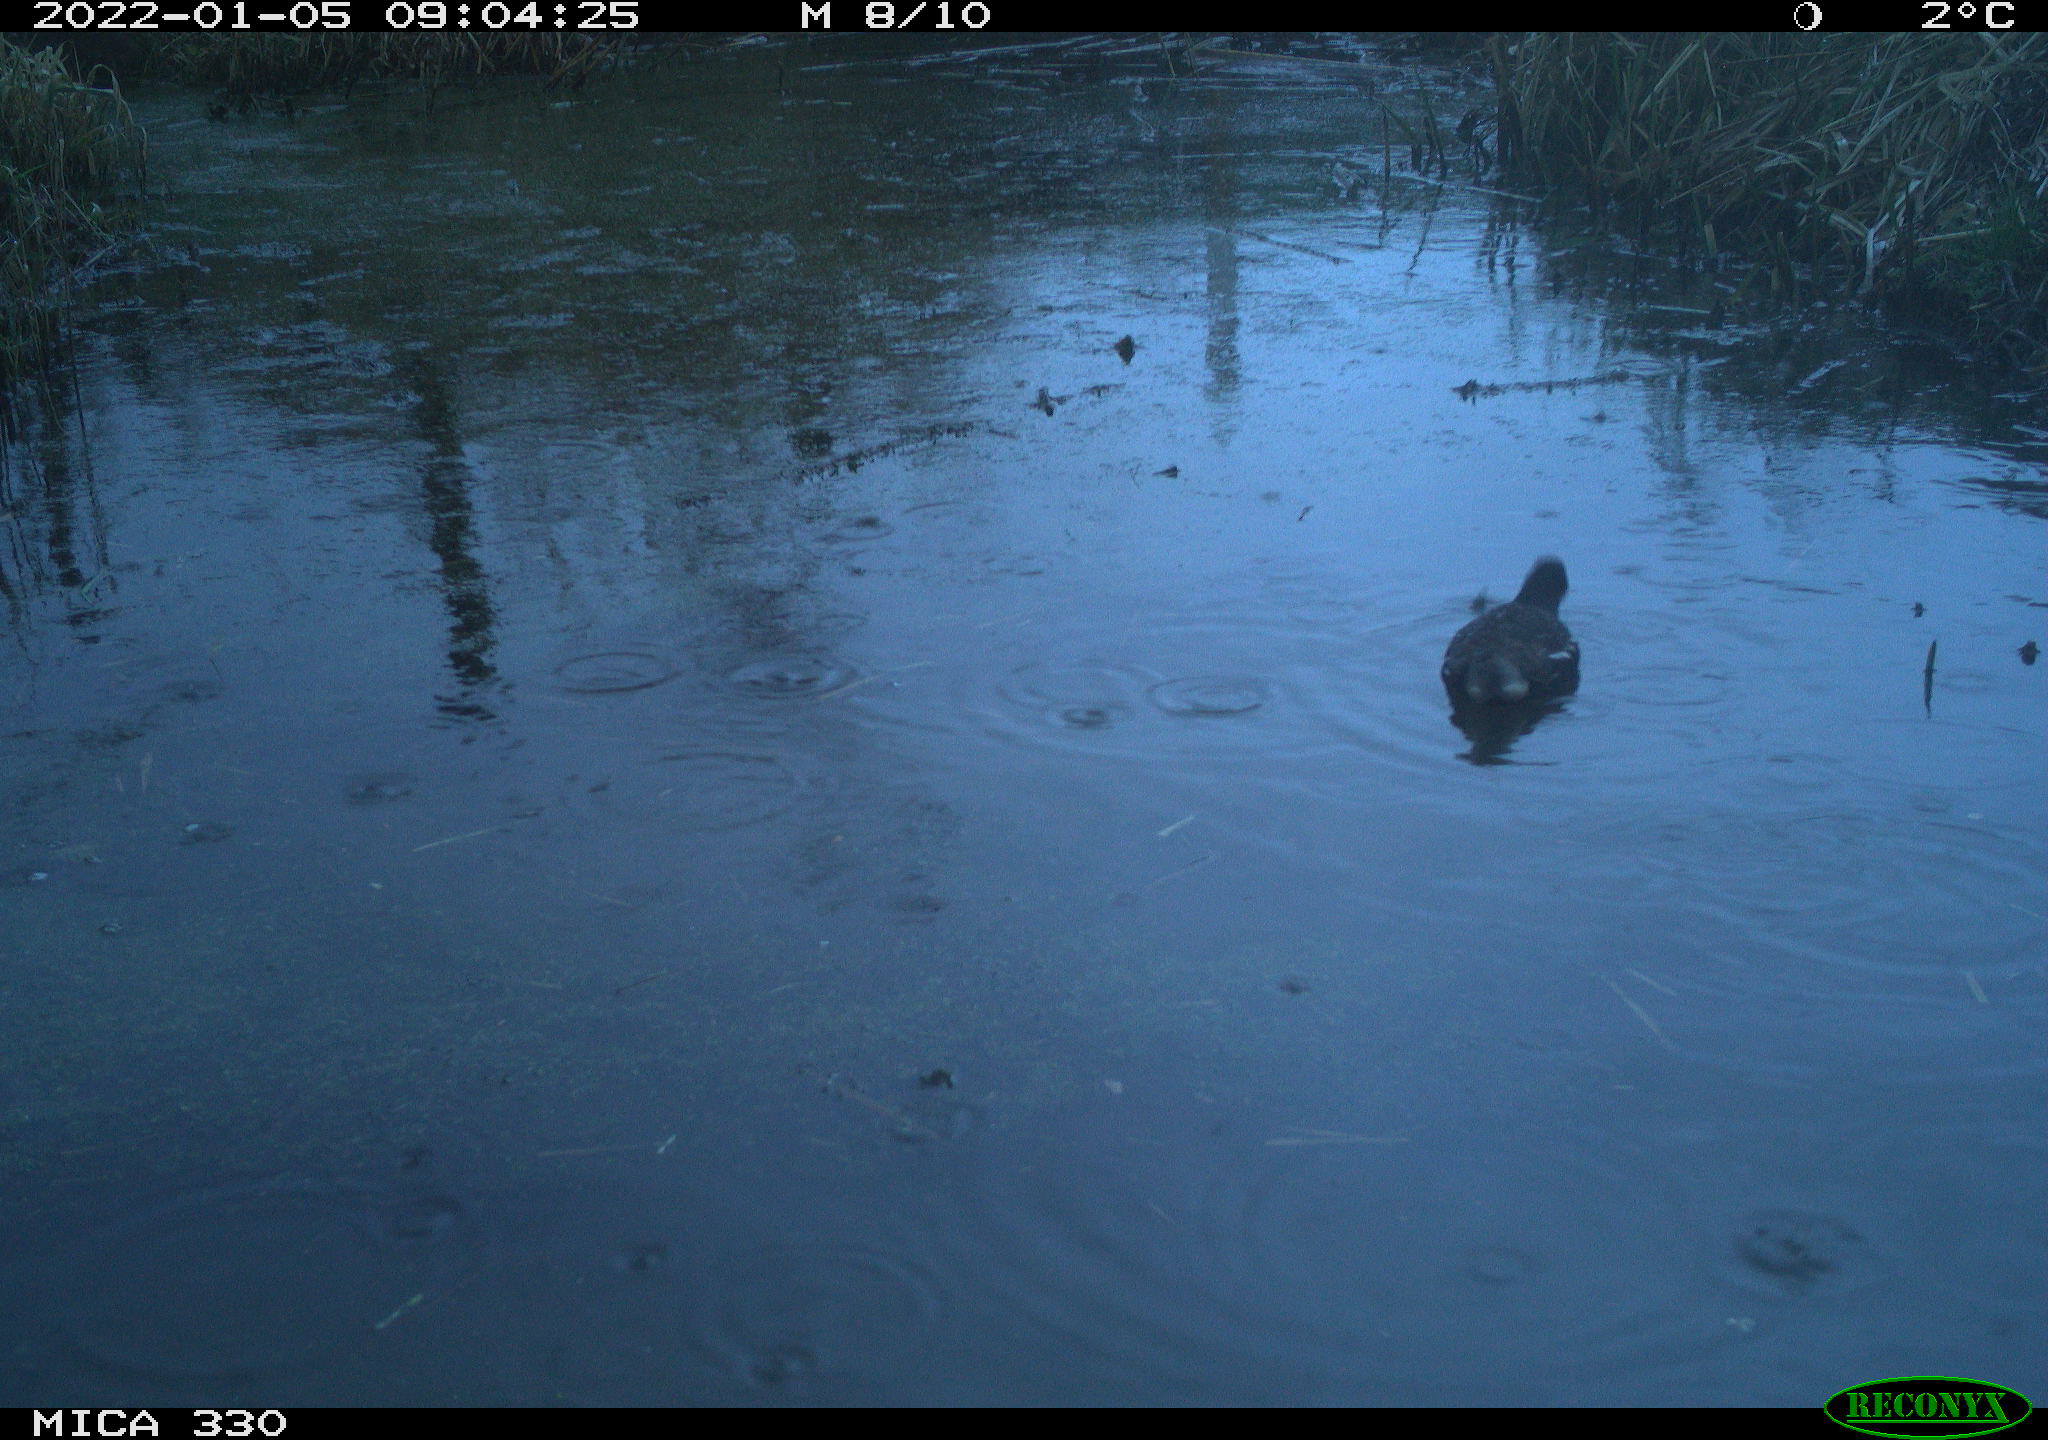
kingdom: Animalia
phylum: Chordata
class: Aves
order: Gruiformes
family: Rallidae
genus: Gallinula
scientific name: Gallinula chloropus
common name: Common moorhen
